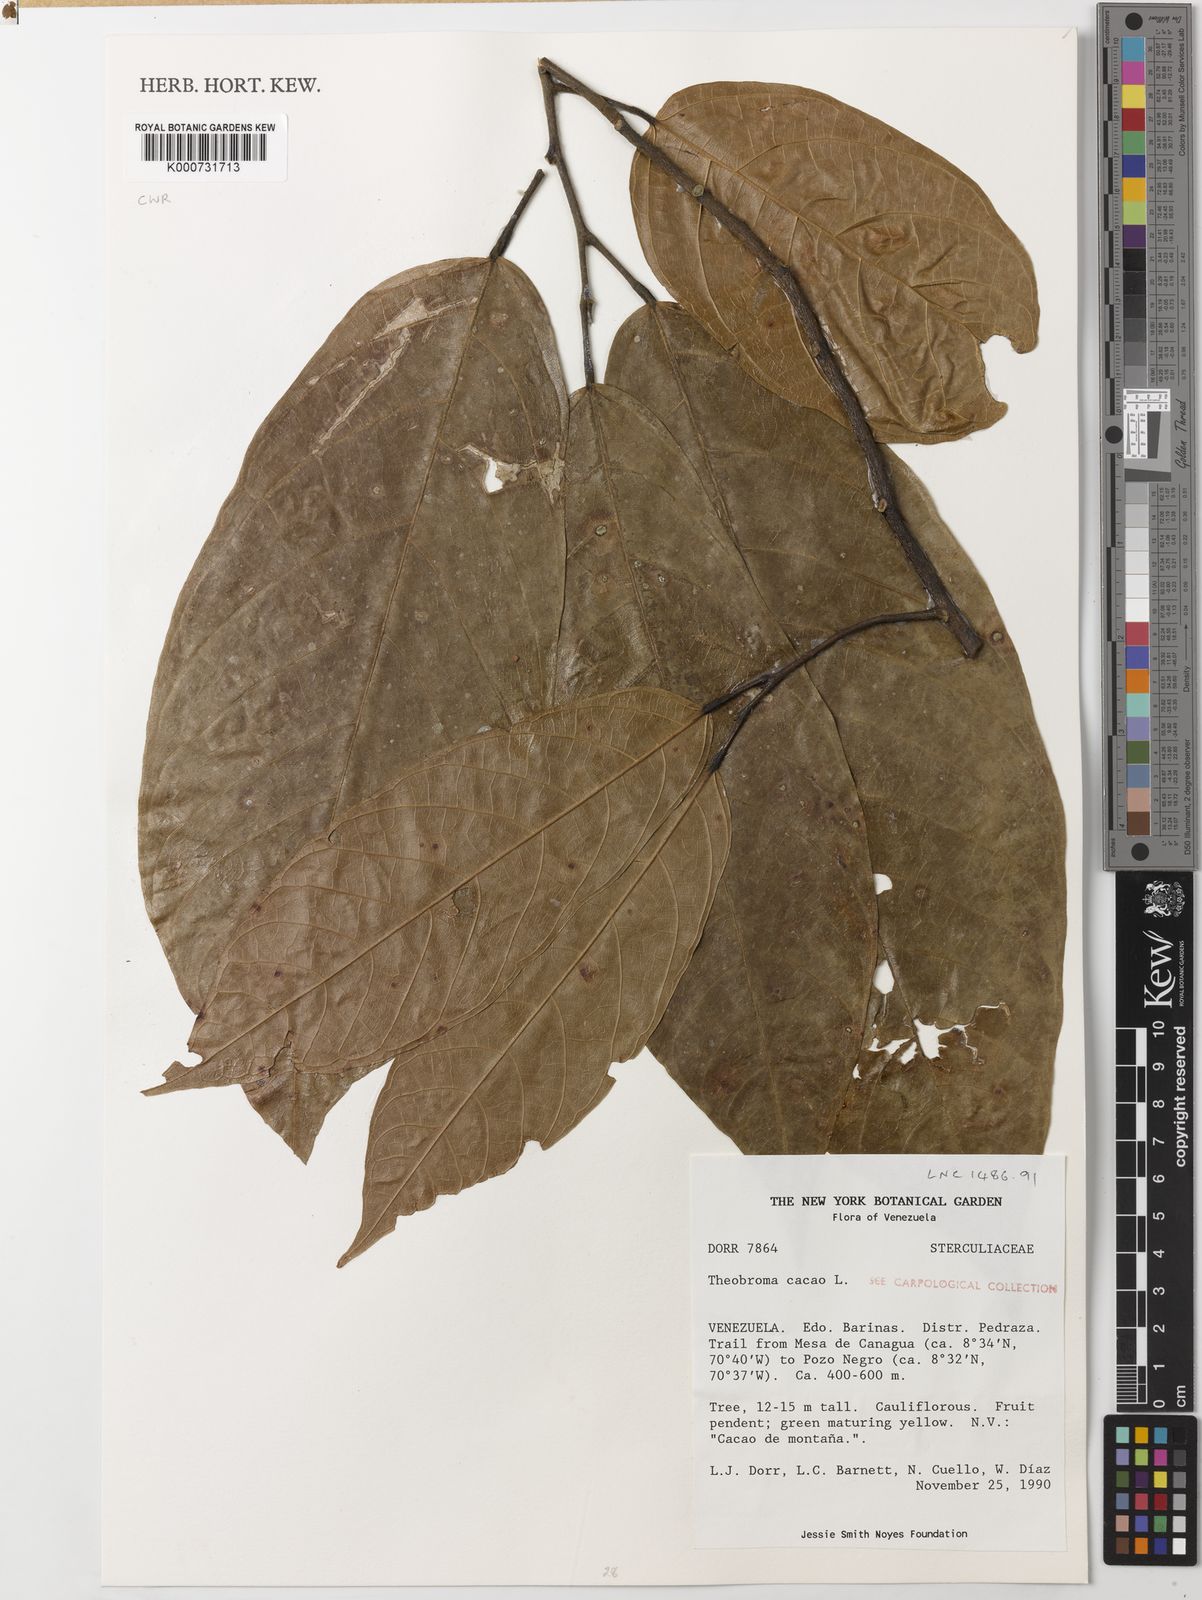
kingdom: Plantae
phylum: Tracheophyta
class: Magnoliopsida
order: Malvales
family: Malvaceae
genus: Theobroma
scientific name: Theobroma cacao
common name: Cocoa
